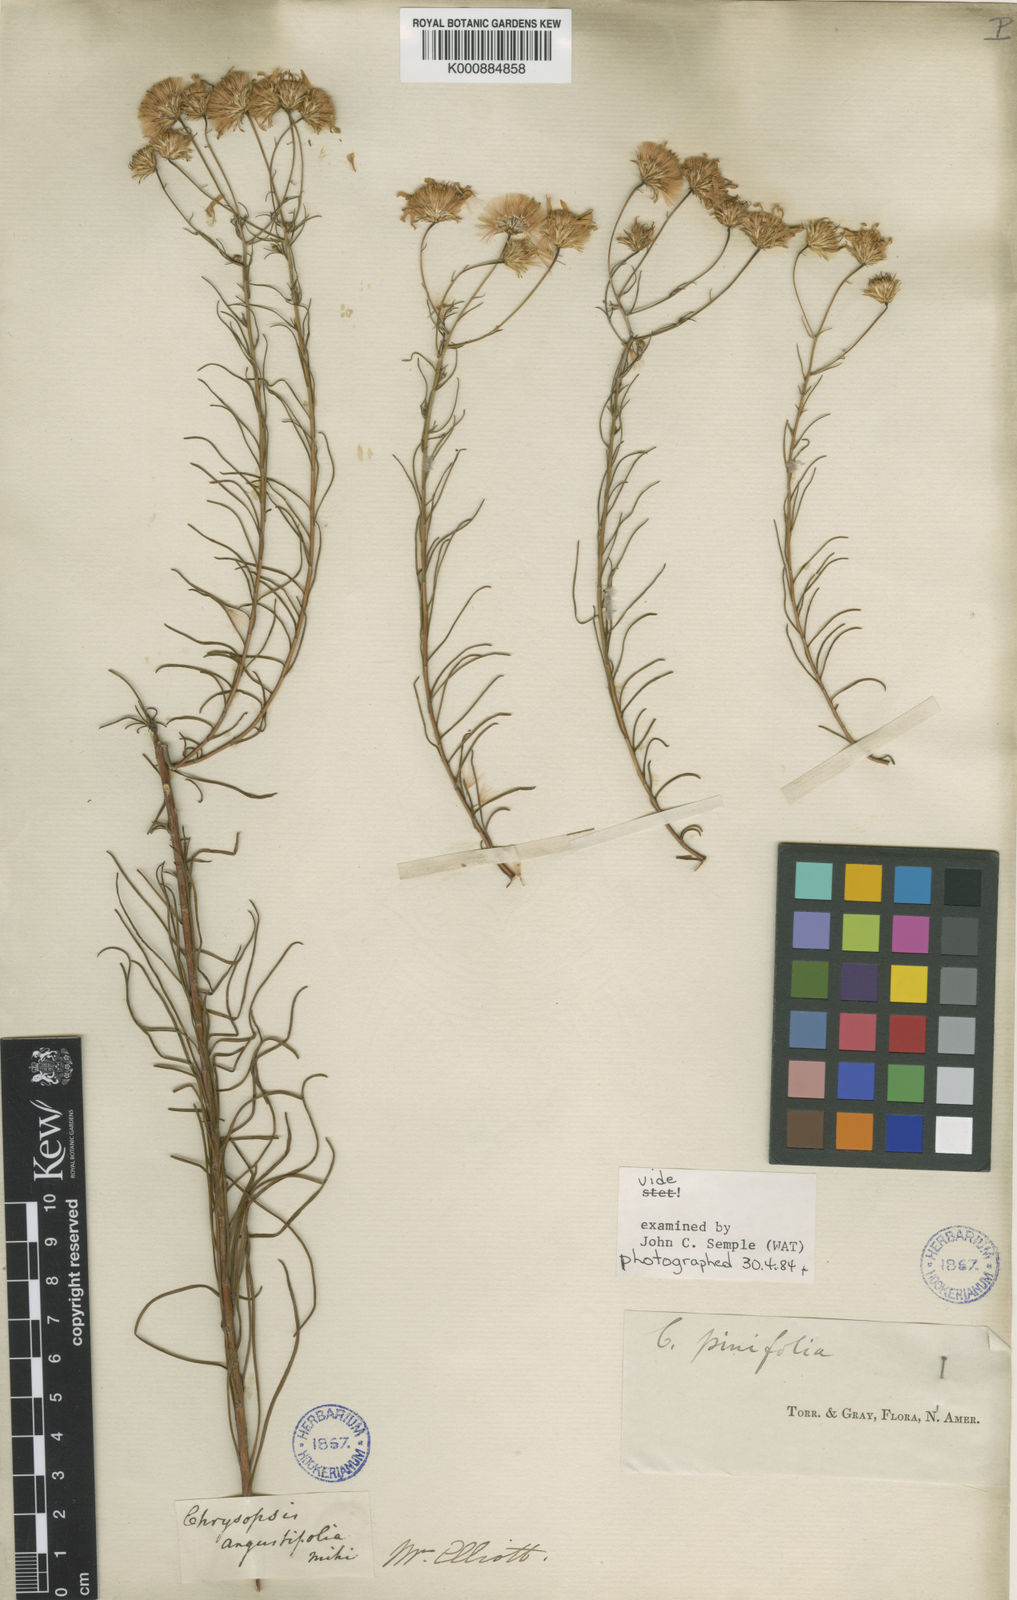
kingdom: Plantae
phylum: Tracheophyta
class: Magnoliopsida
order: Asterales
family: Asteraceae
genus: Pityopsis
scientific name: Pityopsis pinifolia
